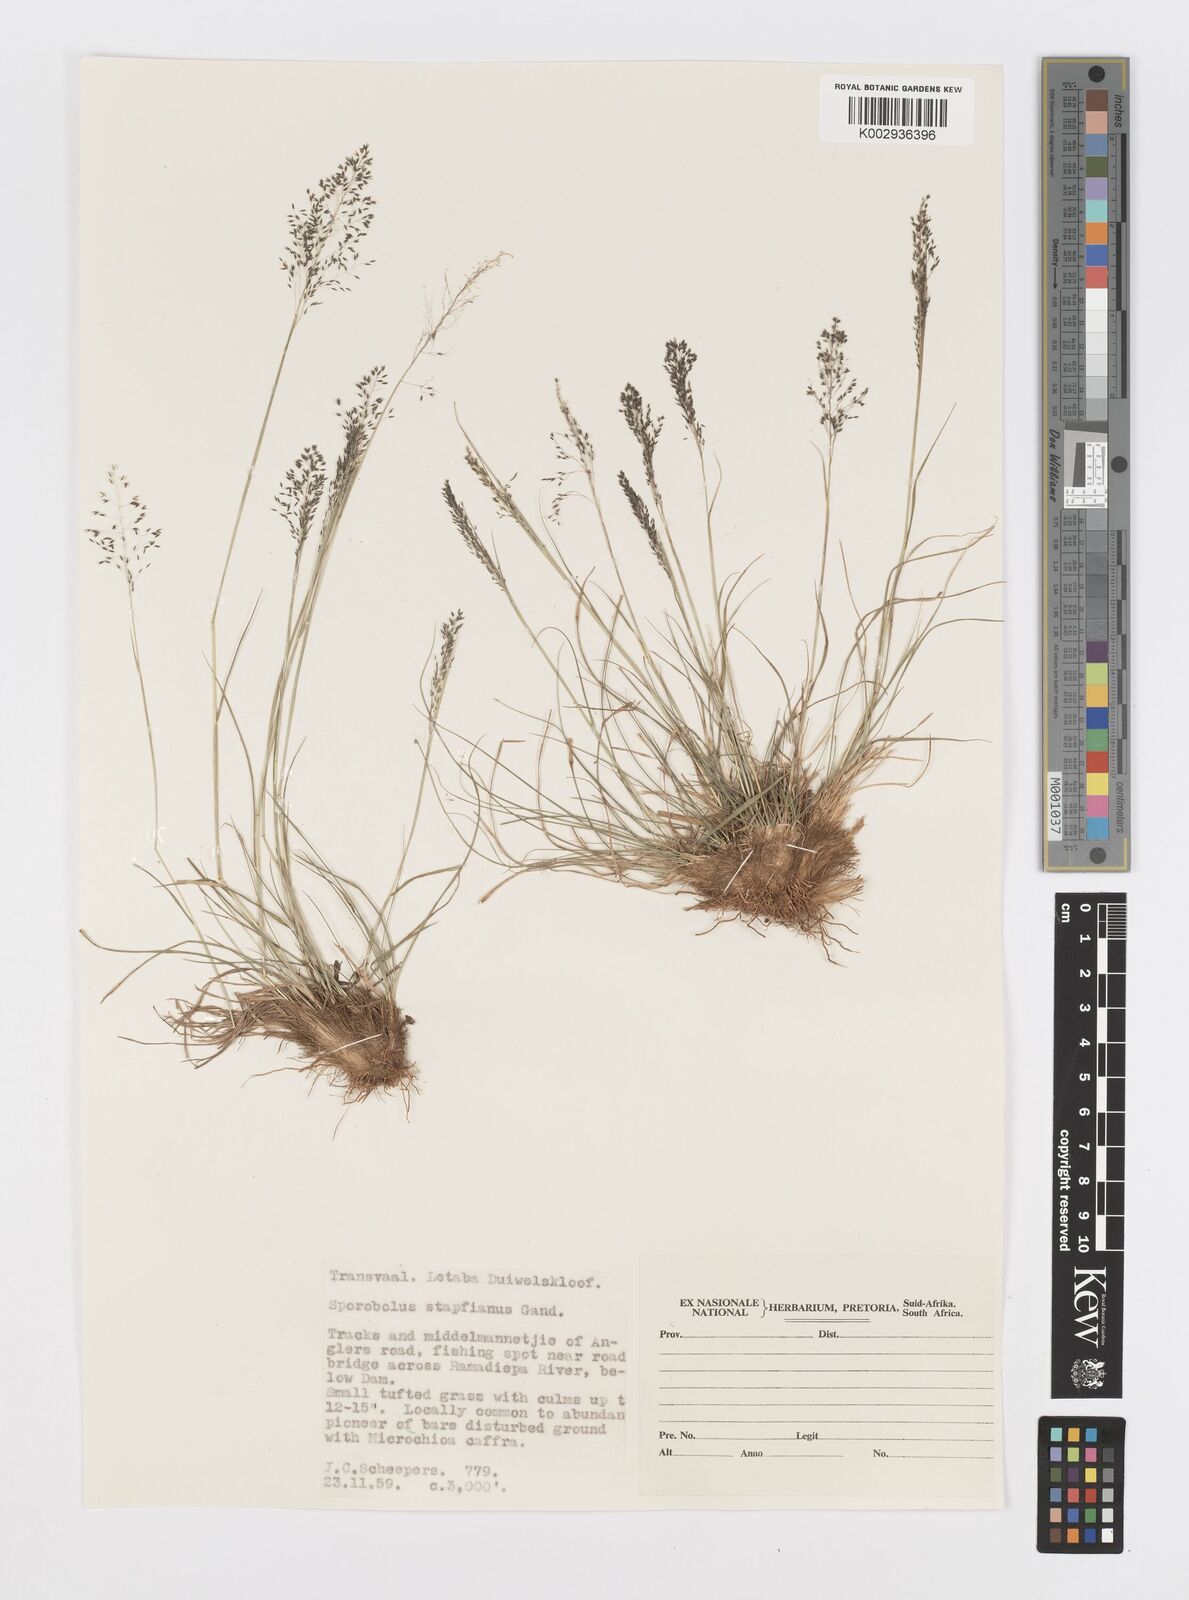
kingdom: Plantae
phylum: Tracheophyta
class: Liliopsida
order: Poales
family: Poaceae
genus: Sporobolus
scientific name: Sporobolus stapfianus
